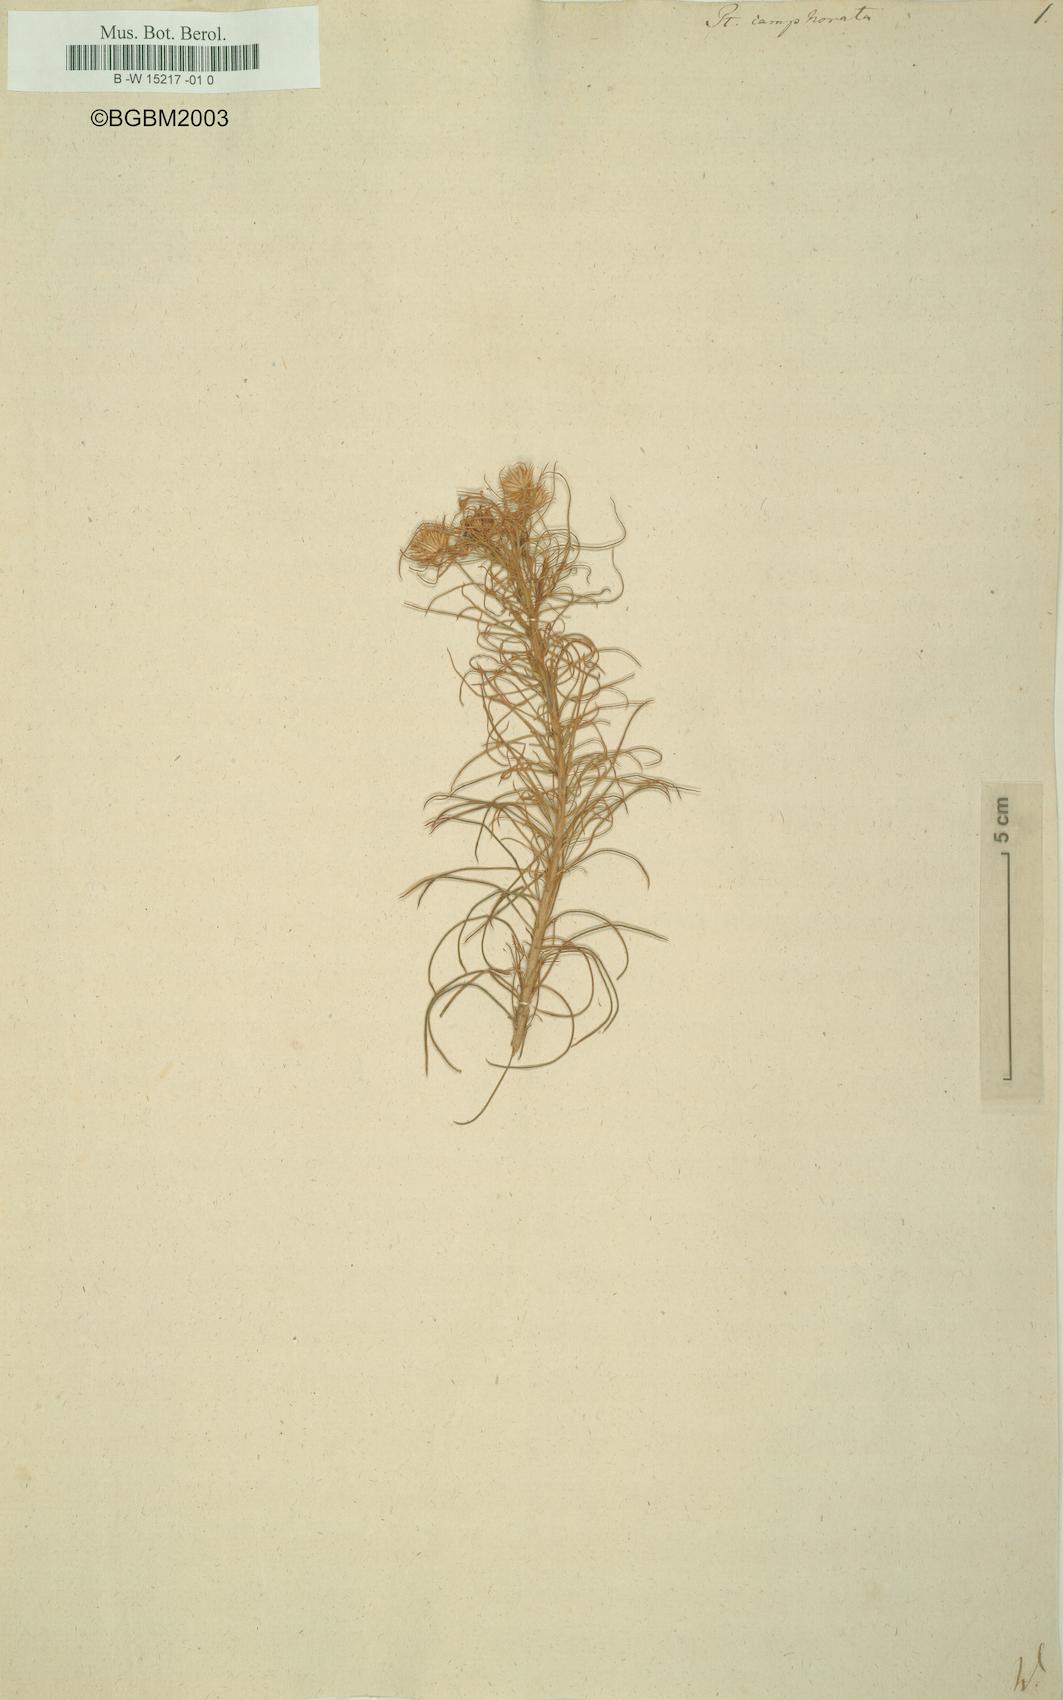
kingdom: Plantae
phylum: Tracheophyta
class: Magnoliopsida
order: Asterales
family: Asteraceae
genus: Pteronia
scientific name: Pteronia camphorata
